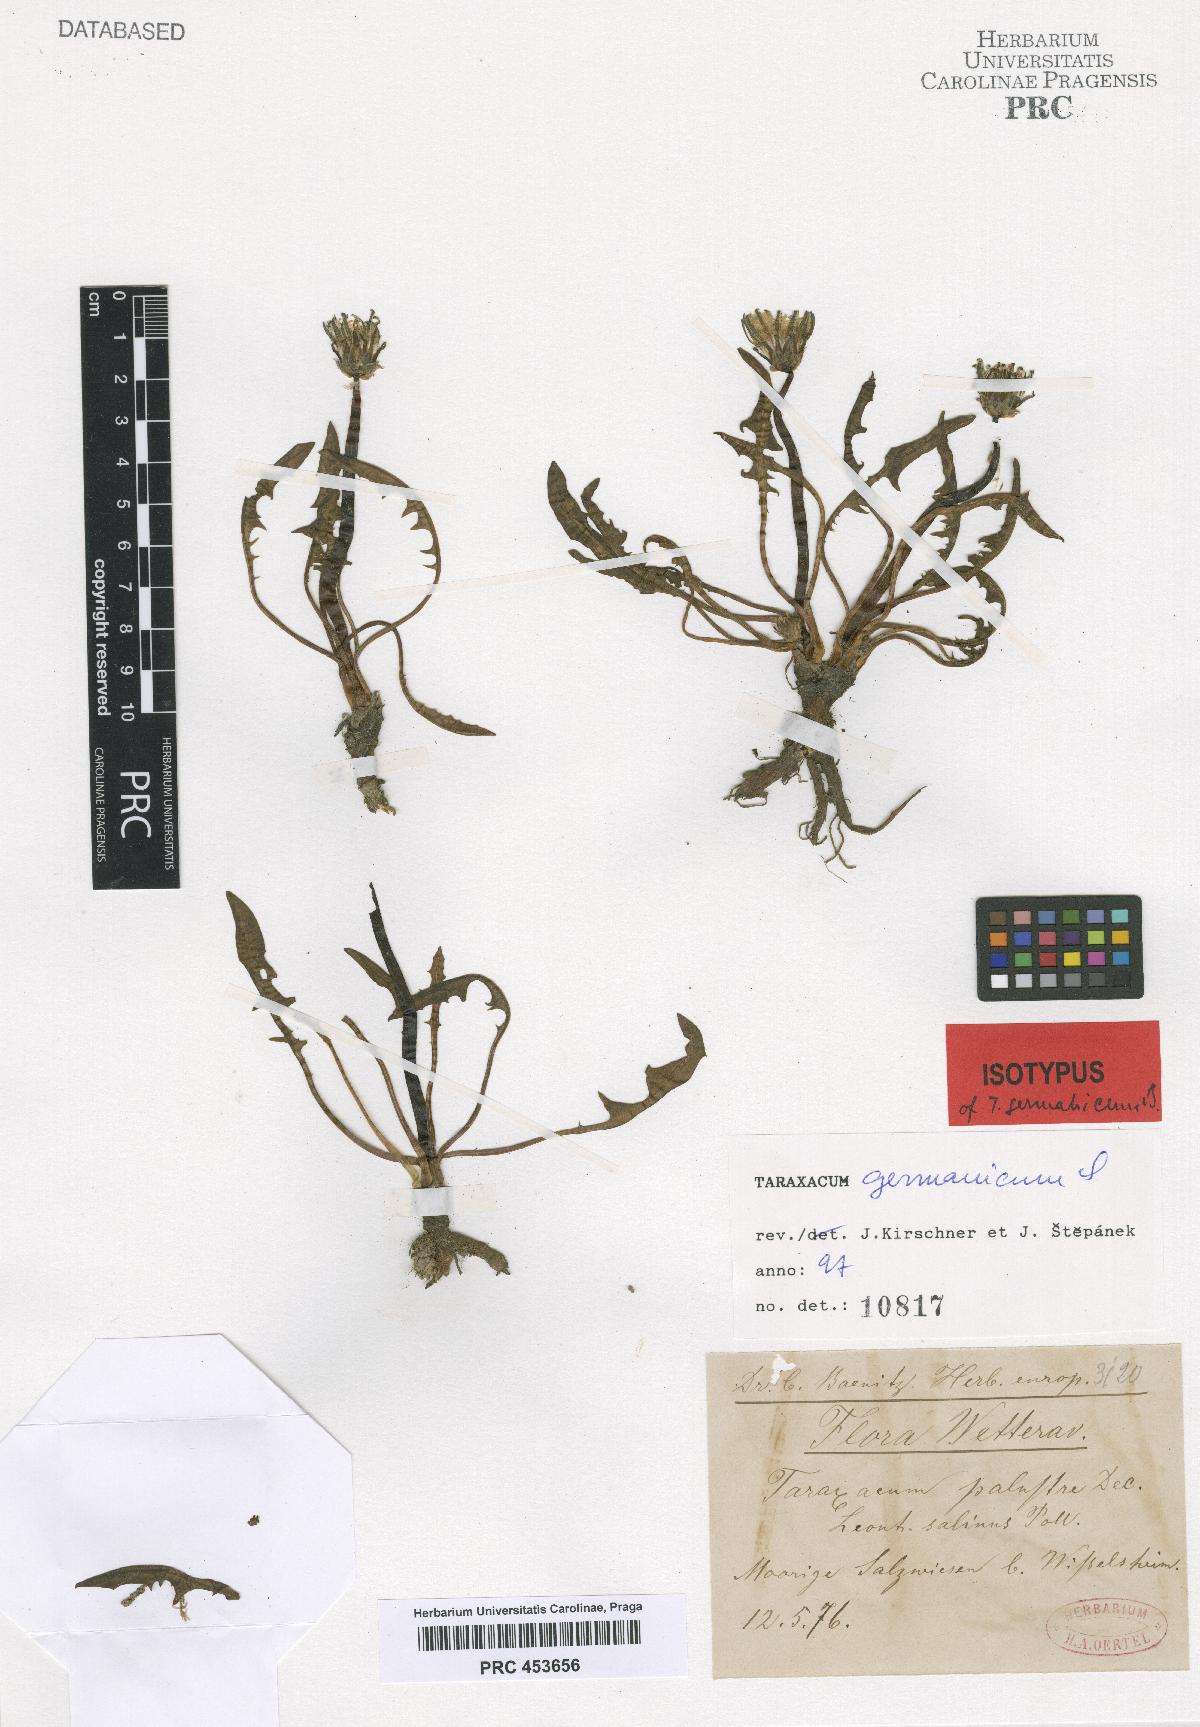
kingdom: Plantae
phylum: Tracheophyta
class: Magnoliopsida
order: Asterales
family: Asteraceae
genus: Taraxacum
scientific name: Taraxacum germanicum
